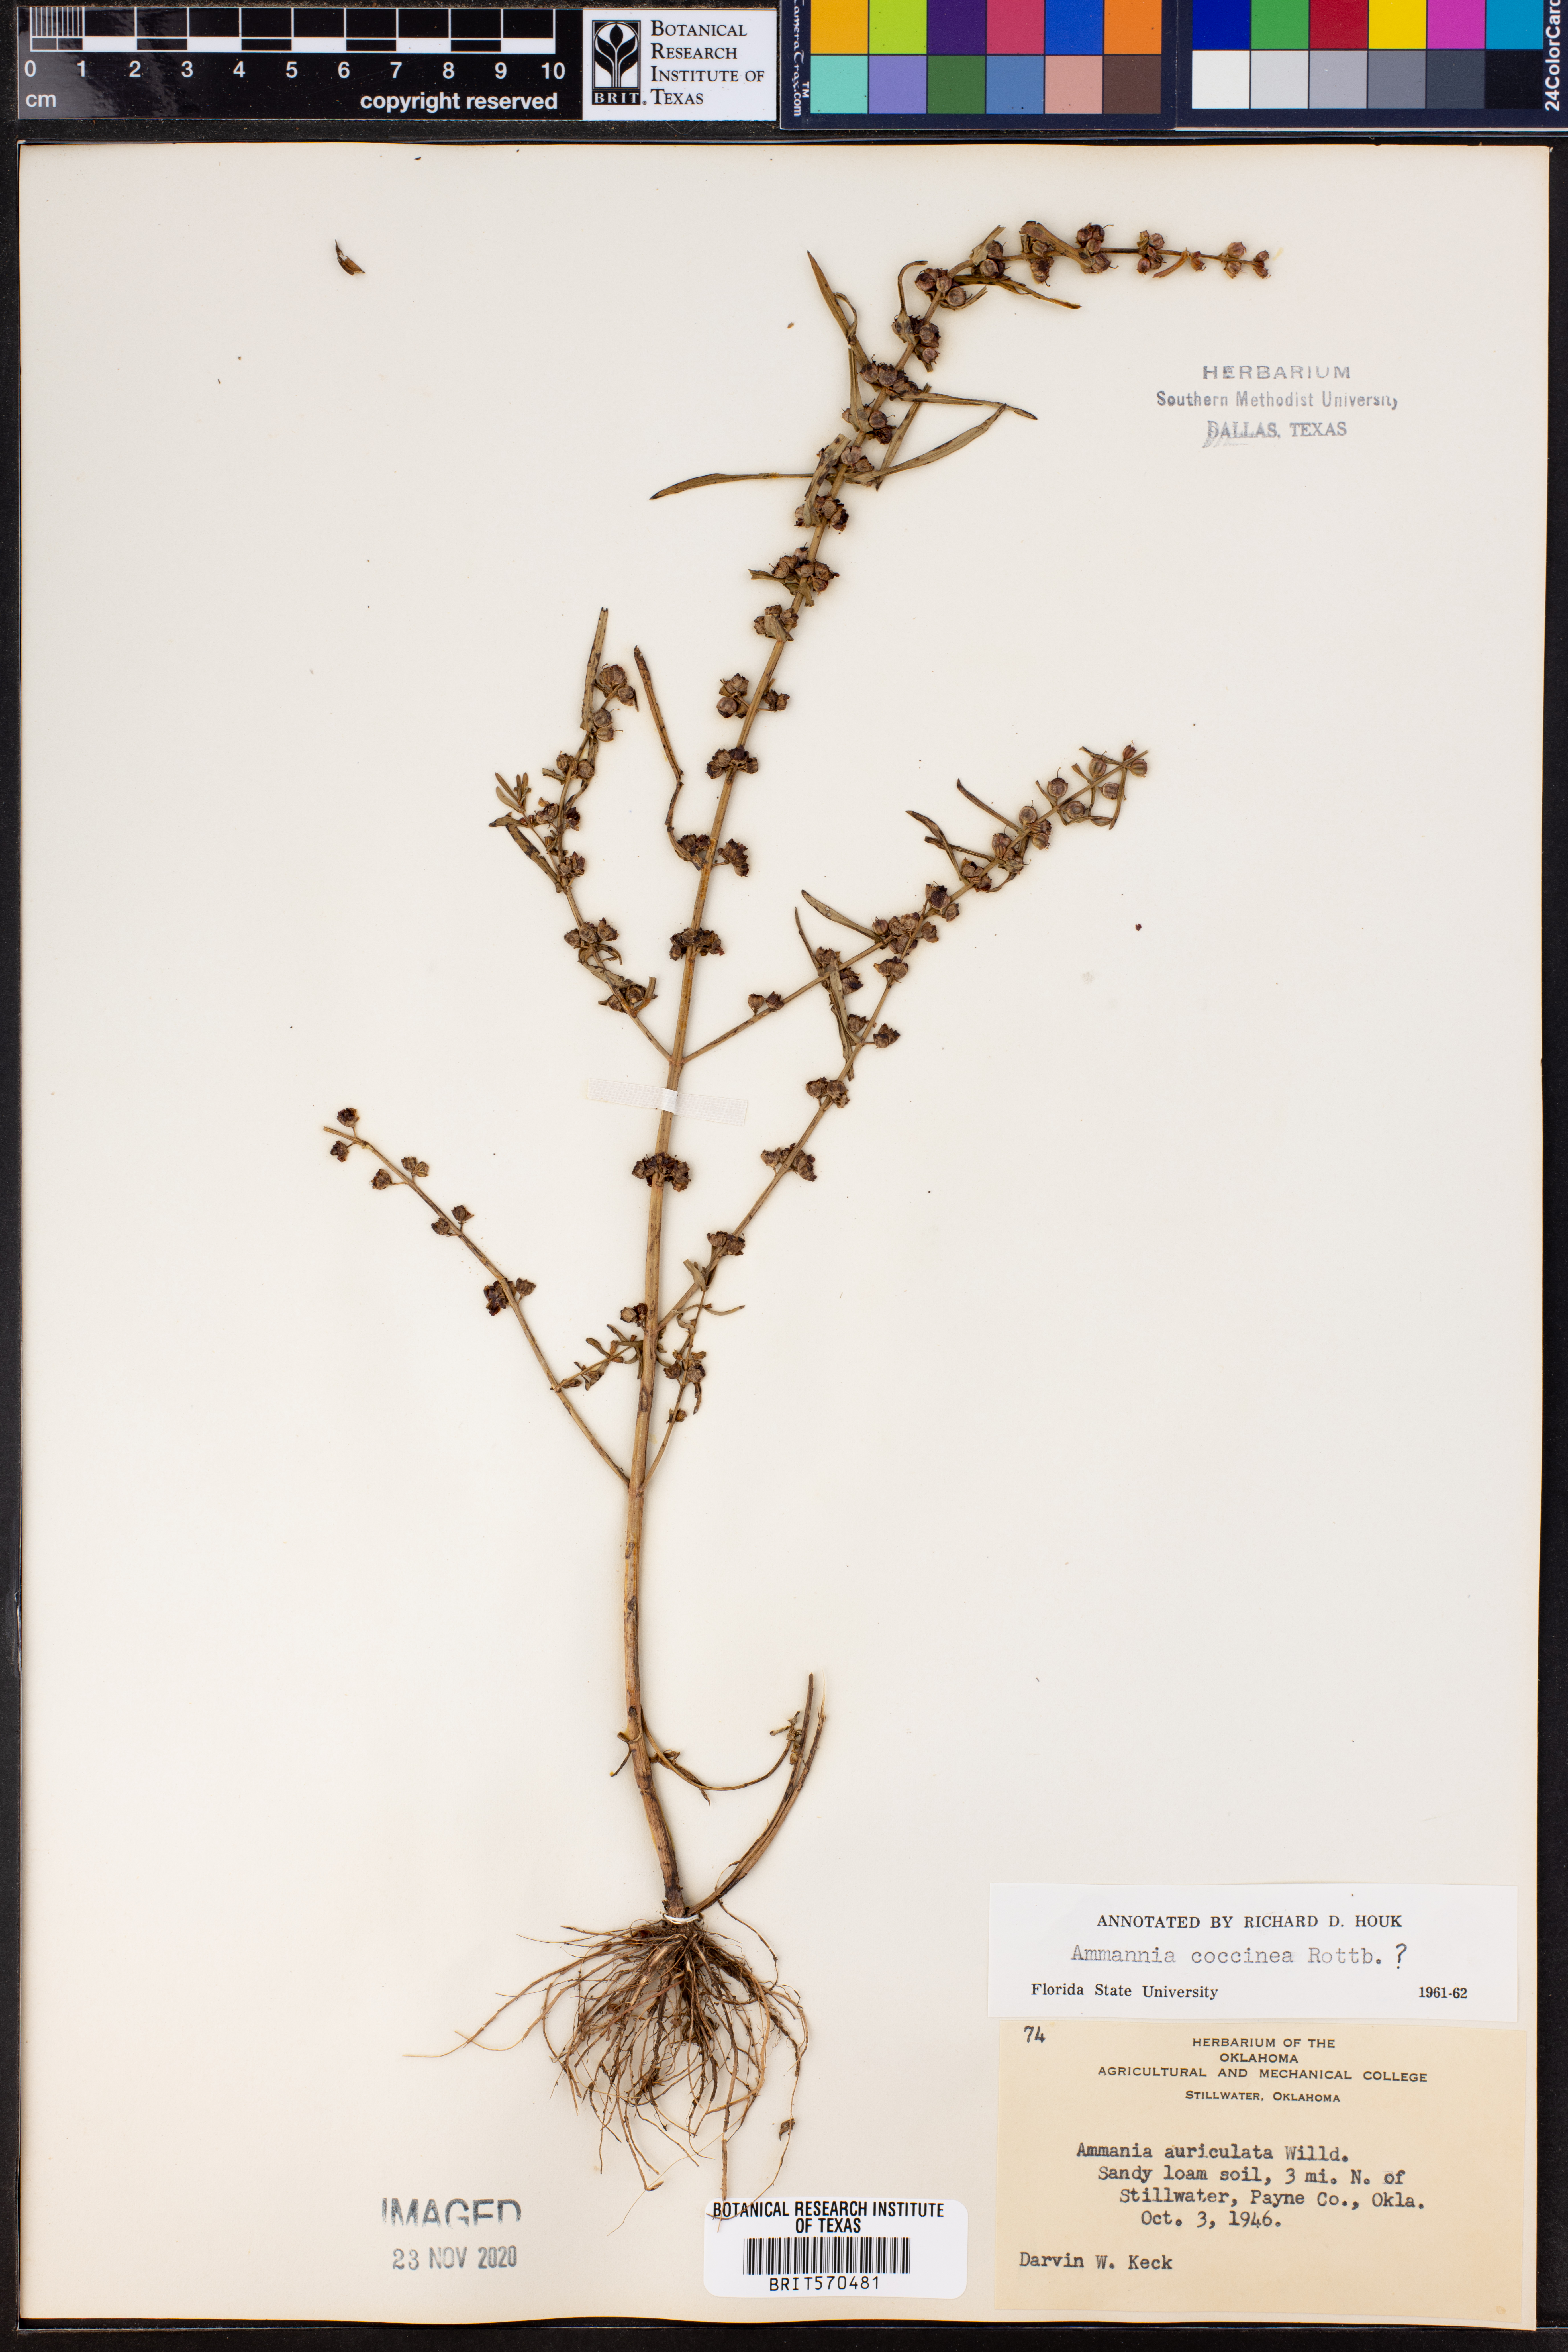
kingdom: Plantae
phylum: Tracheophyta
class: Magnoliopsida
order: Myrtales
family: Lythraceae
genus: Ammannia
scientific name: Ammannia coccinea
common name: Valley redstem
